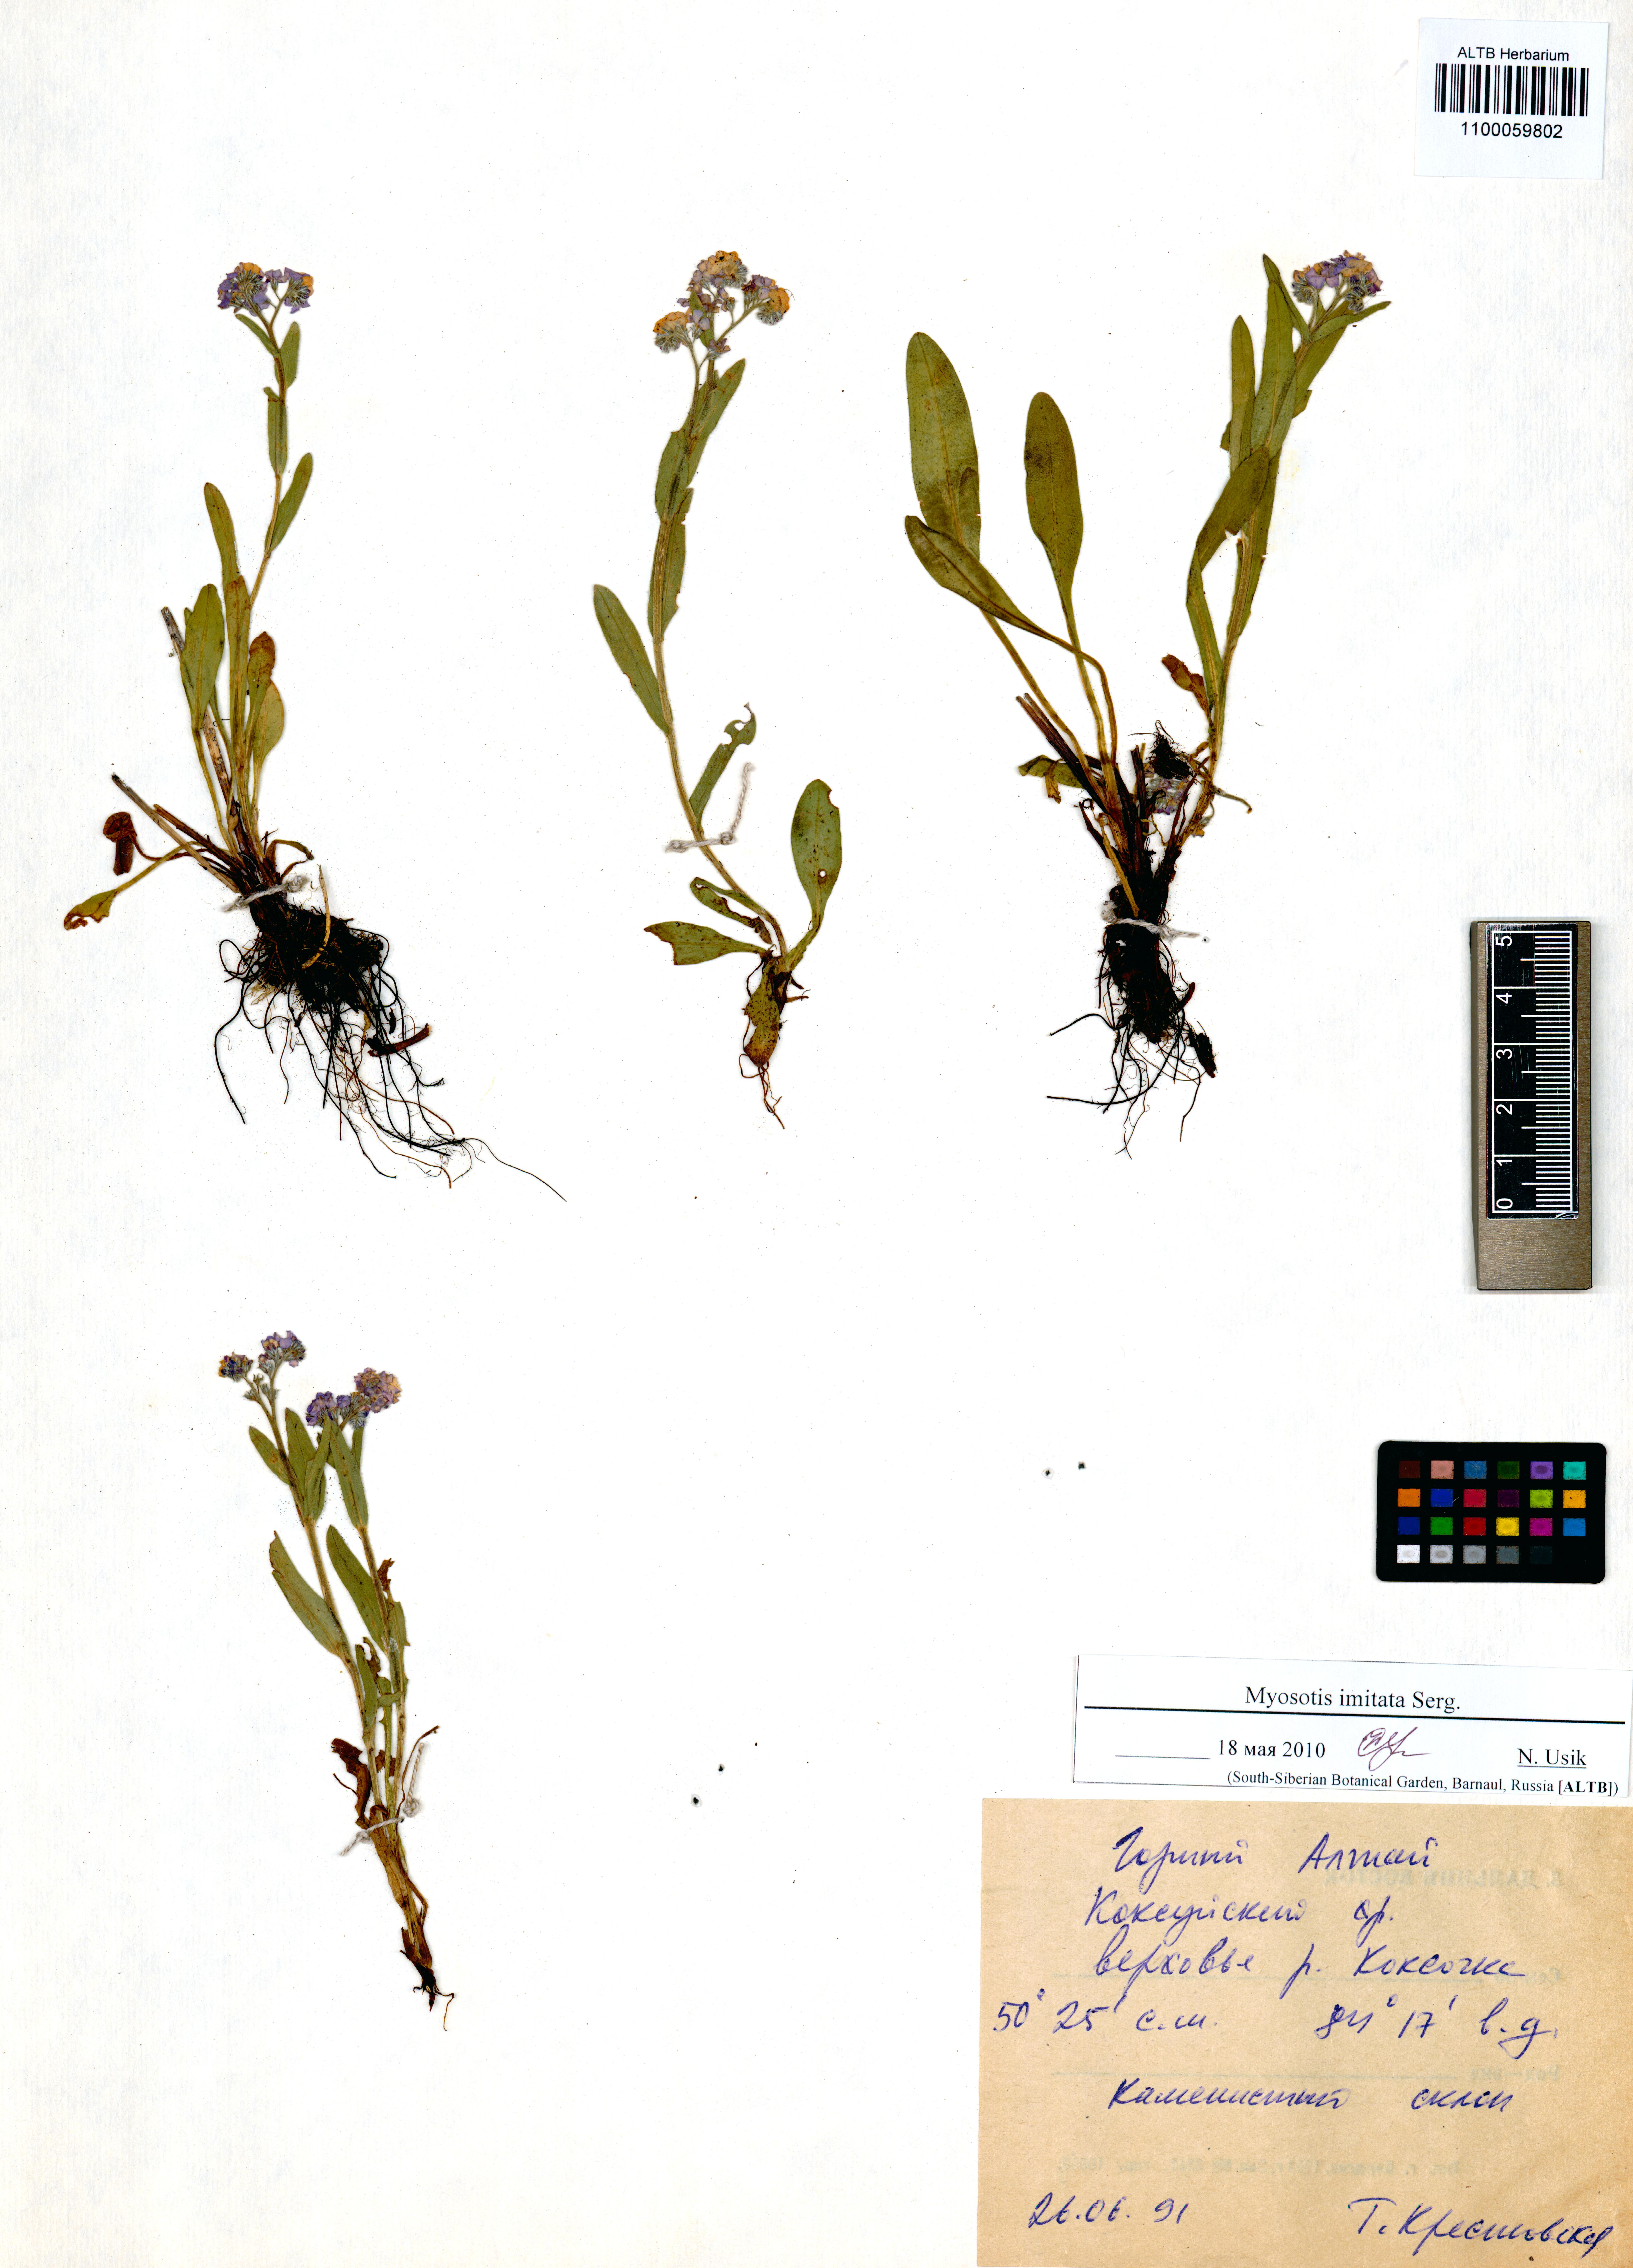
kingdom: Plantae
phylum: Tracheophyta
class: Magnoliopsida
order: Boraginales
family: Boraginaceae
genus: Myosotis
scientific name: Myosotis imitata
